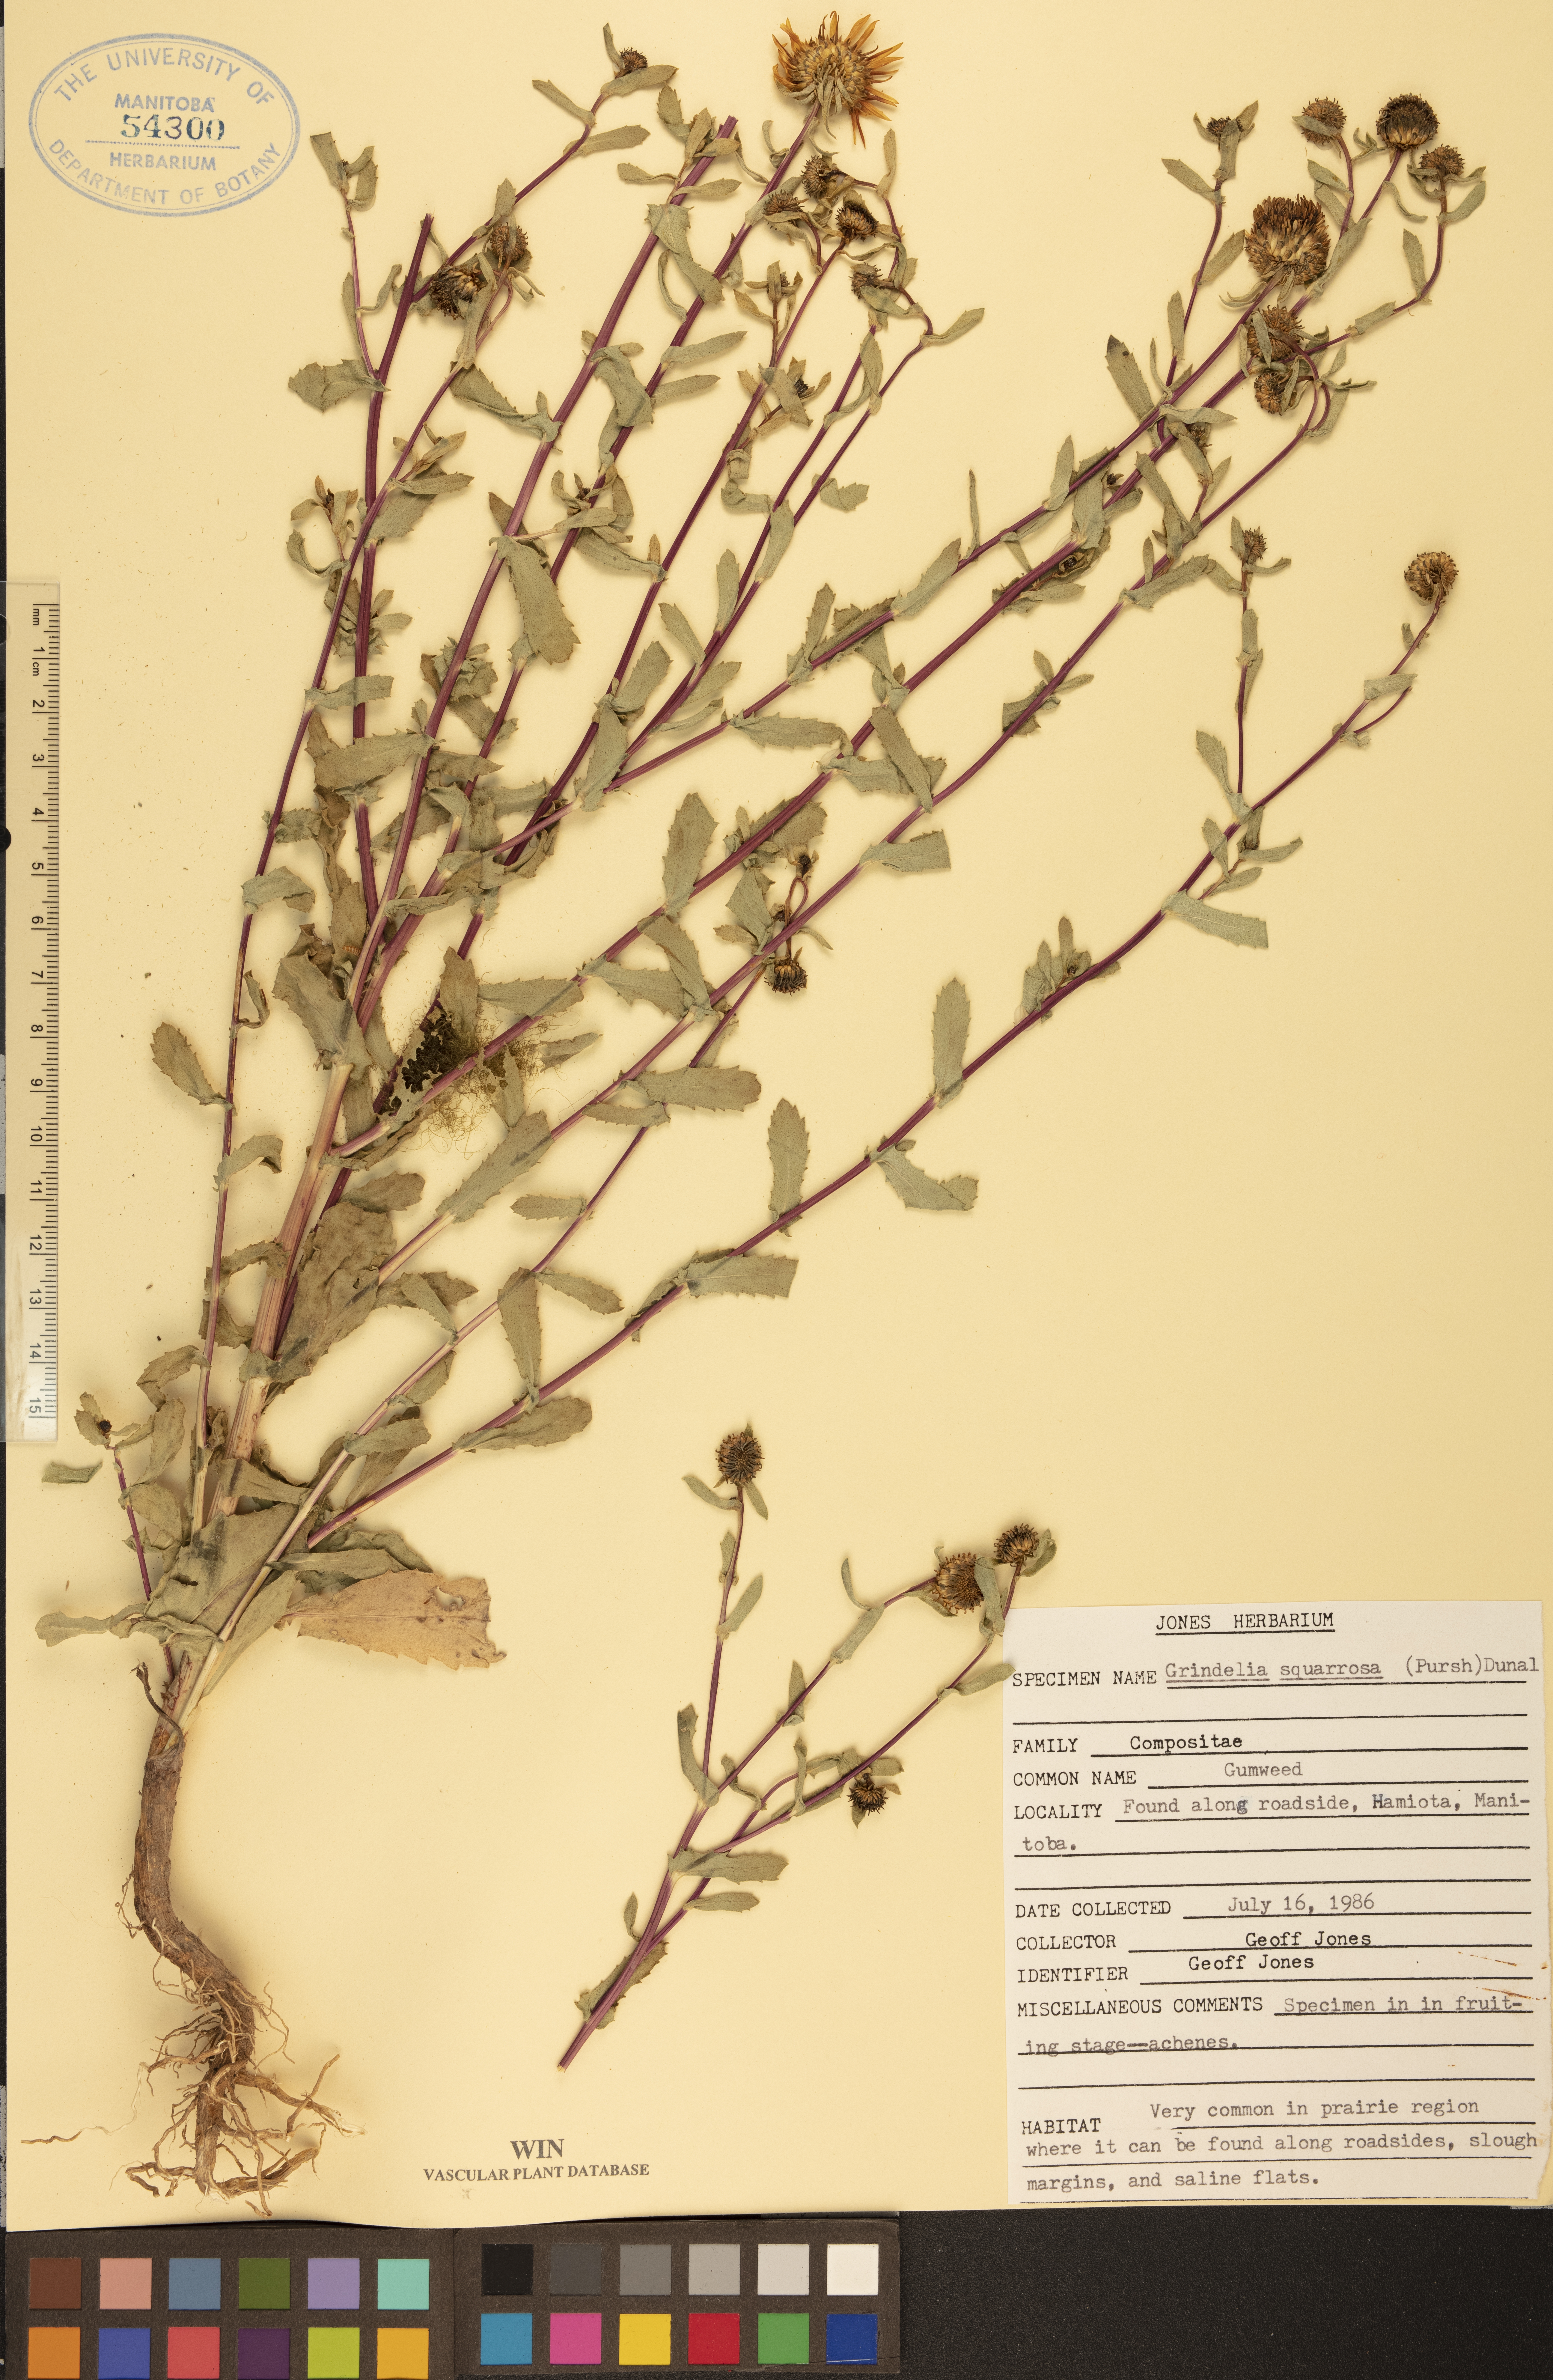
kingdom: Plantae
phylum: Tracheophyta
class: Magnoliopsida
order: Asterales
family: Asteraceae
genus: Grindelia
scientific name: Grindelia squarrosa
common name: Curly-cup gumweed
